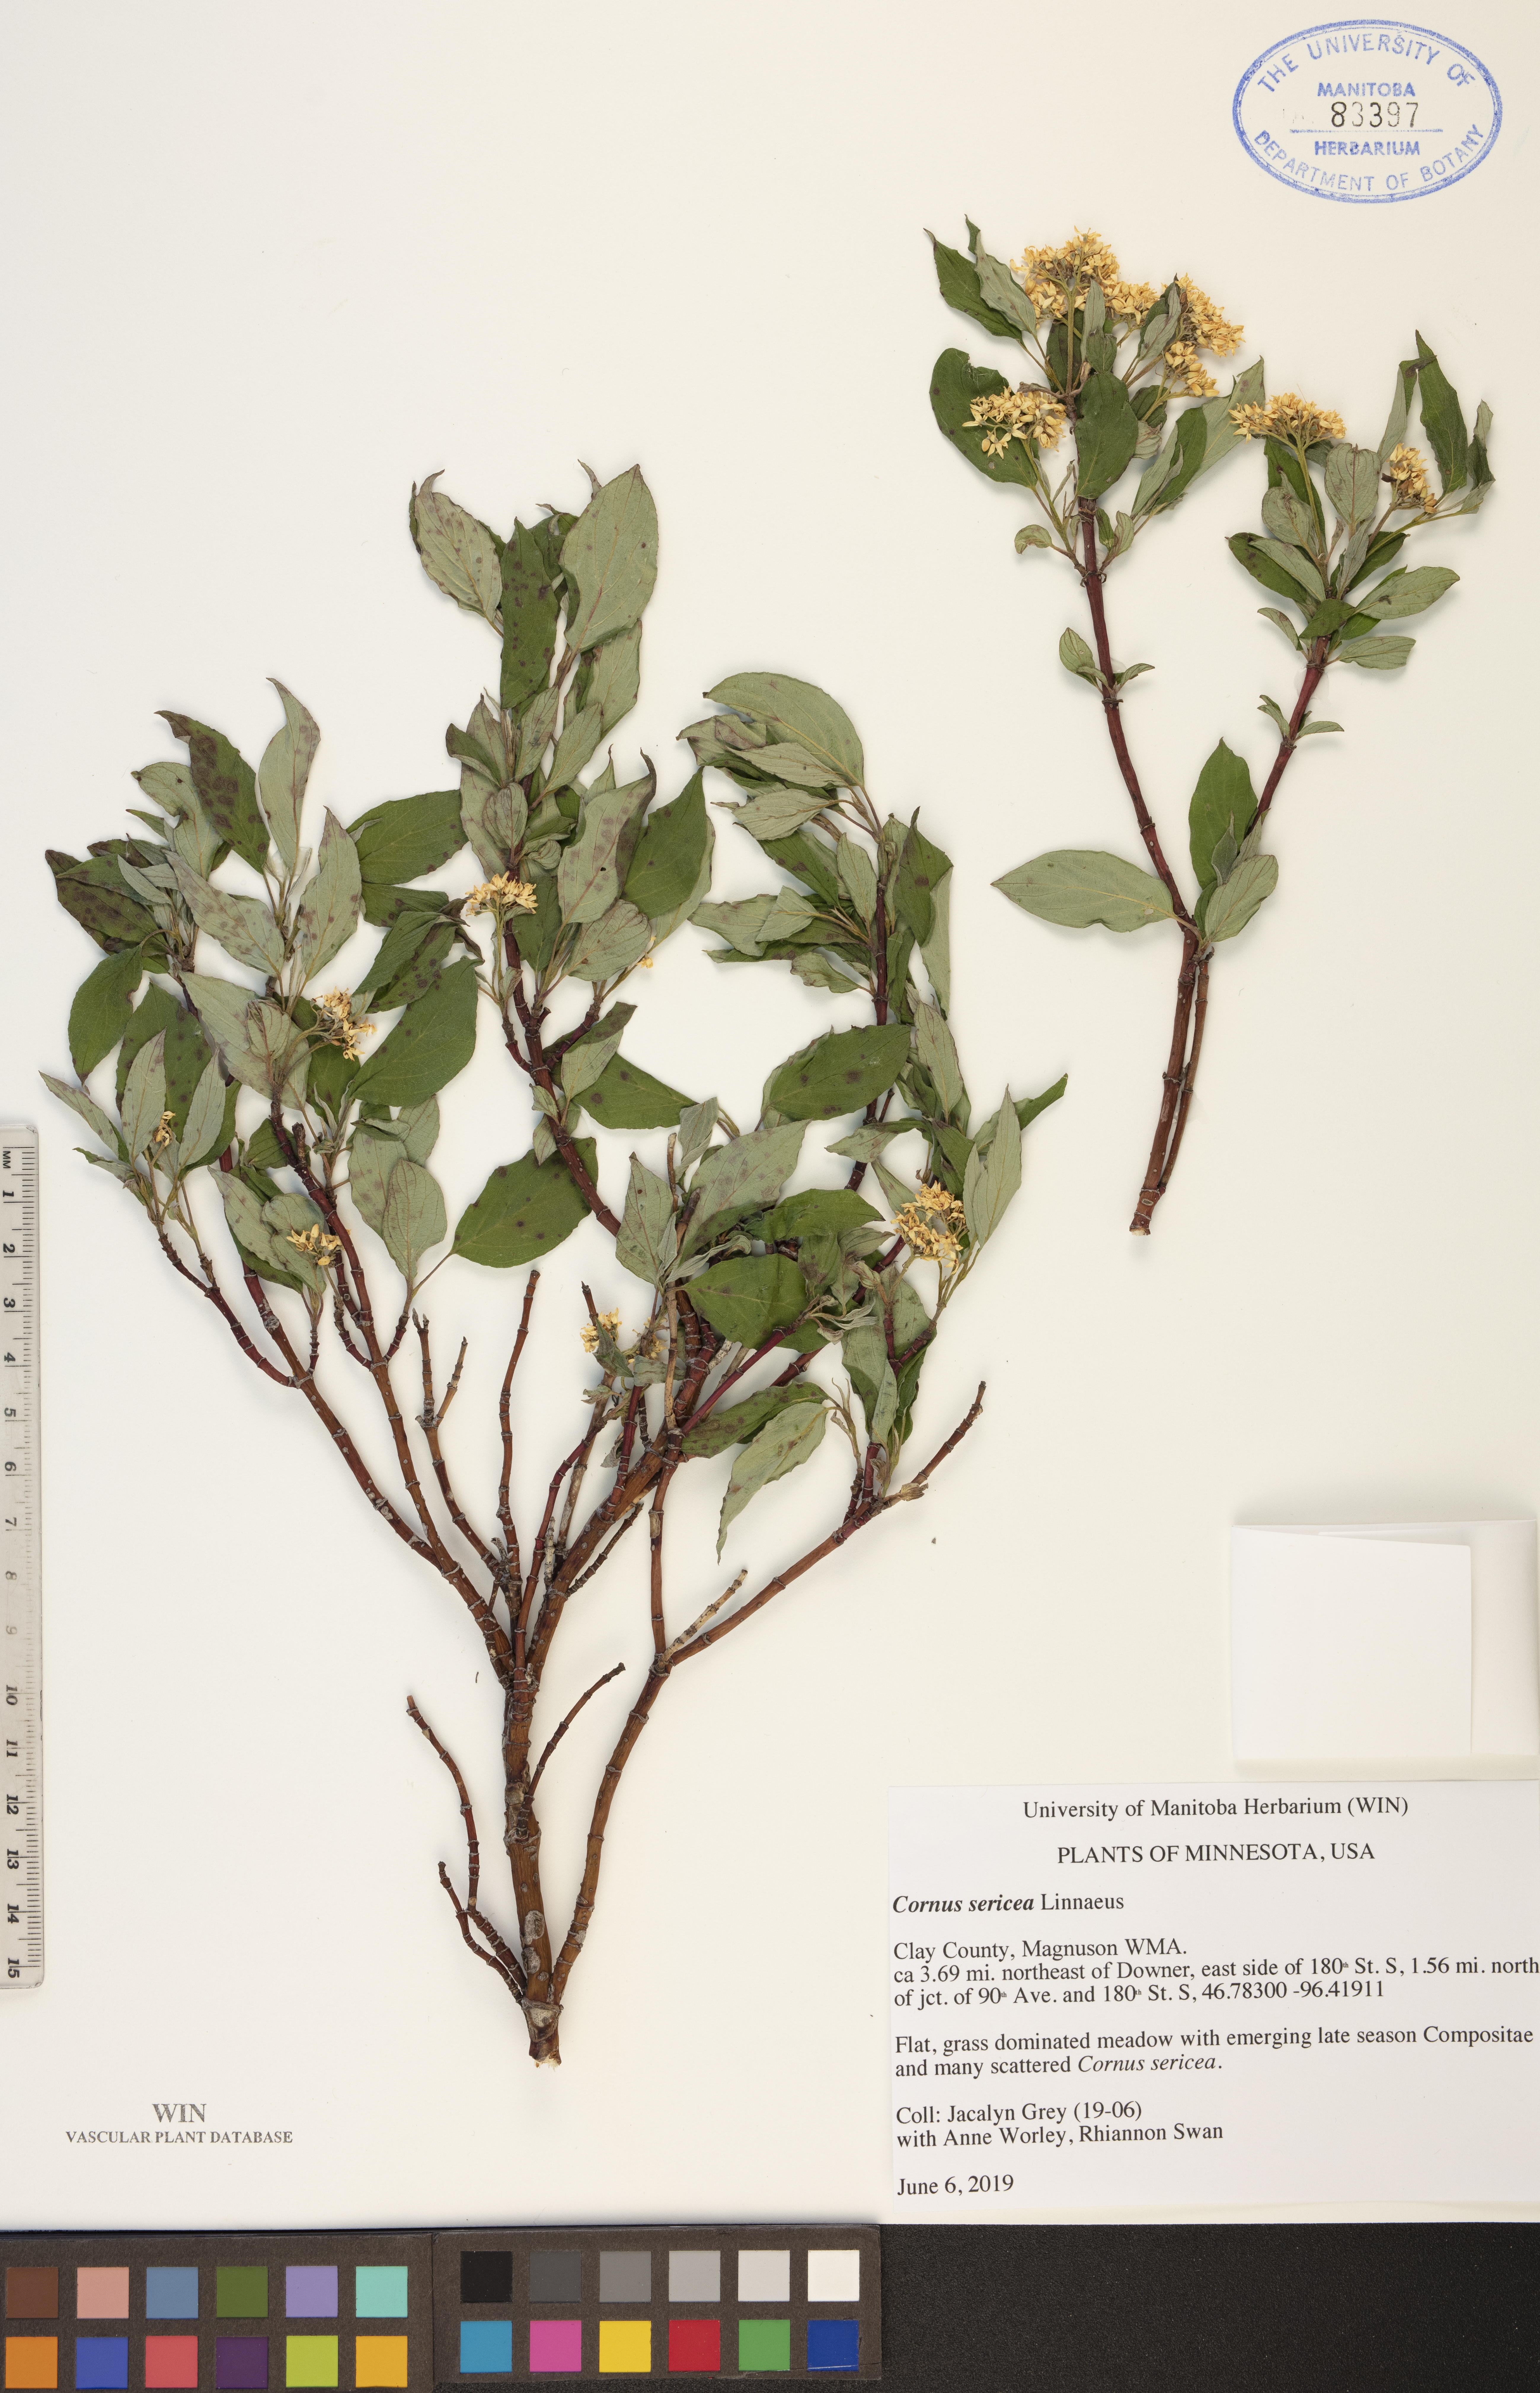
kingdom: Plantae
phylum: Tracheophyta
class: Magnoliopsida
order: Cornales
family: Cornaceae
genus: Cornus
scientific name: Cornus sericea
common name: Red-osier dogwood
